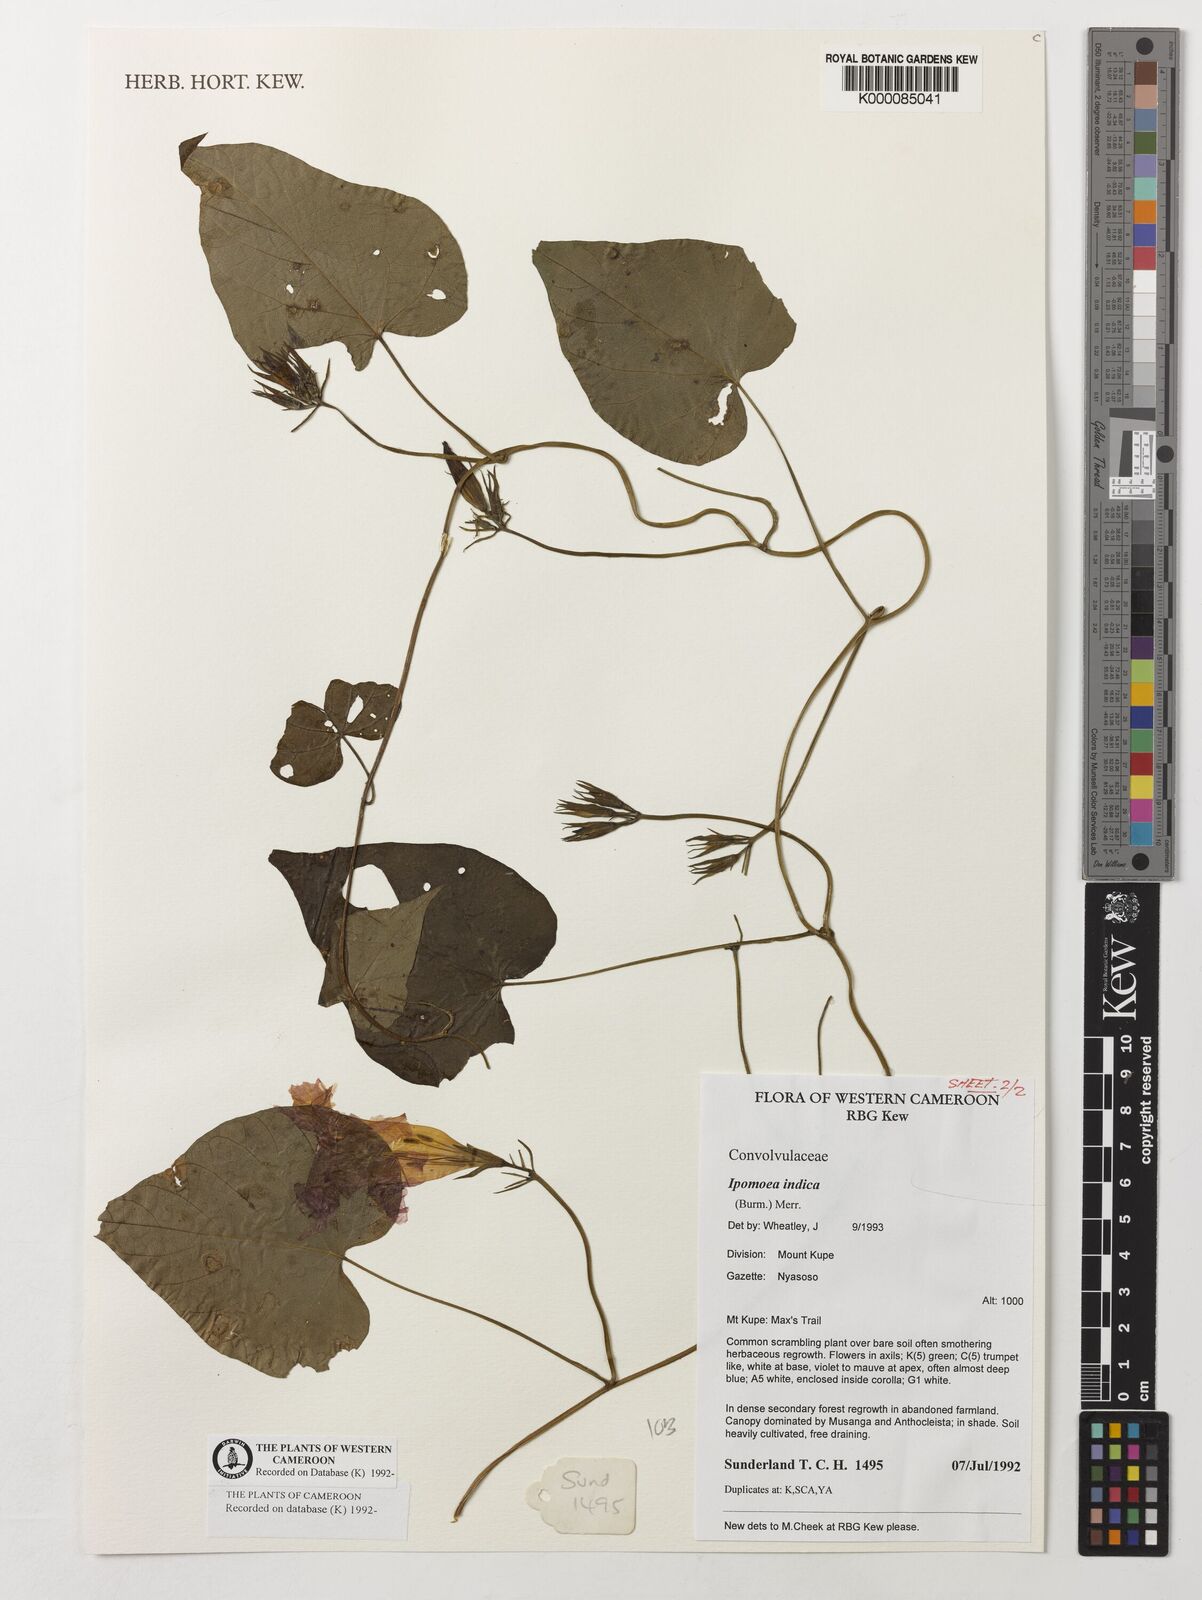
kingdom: Plantae
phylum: Tracheophyta
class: Magnoliopsida
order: Solanales
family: Convolvulaceae
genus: Ipomoea
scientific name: Ipomoea indica
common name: Blue dawnflower
